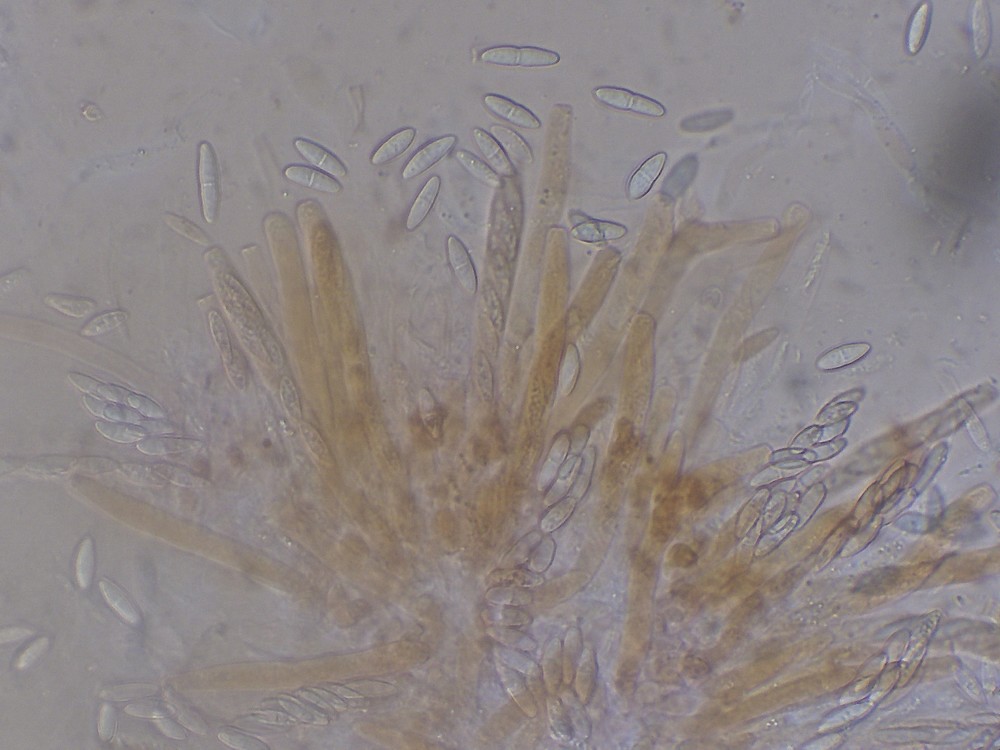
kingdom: Fungi
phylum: Ascomycota
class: Sordariomycetes
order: Hypocreales
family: Nectriaceae
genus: Neonectria
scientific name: Neonectria neomacrospora
